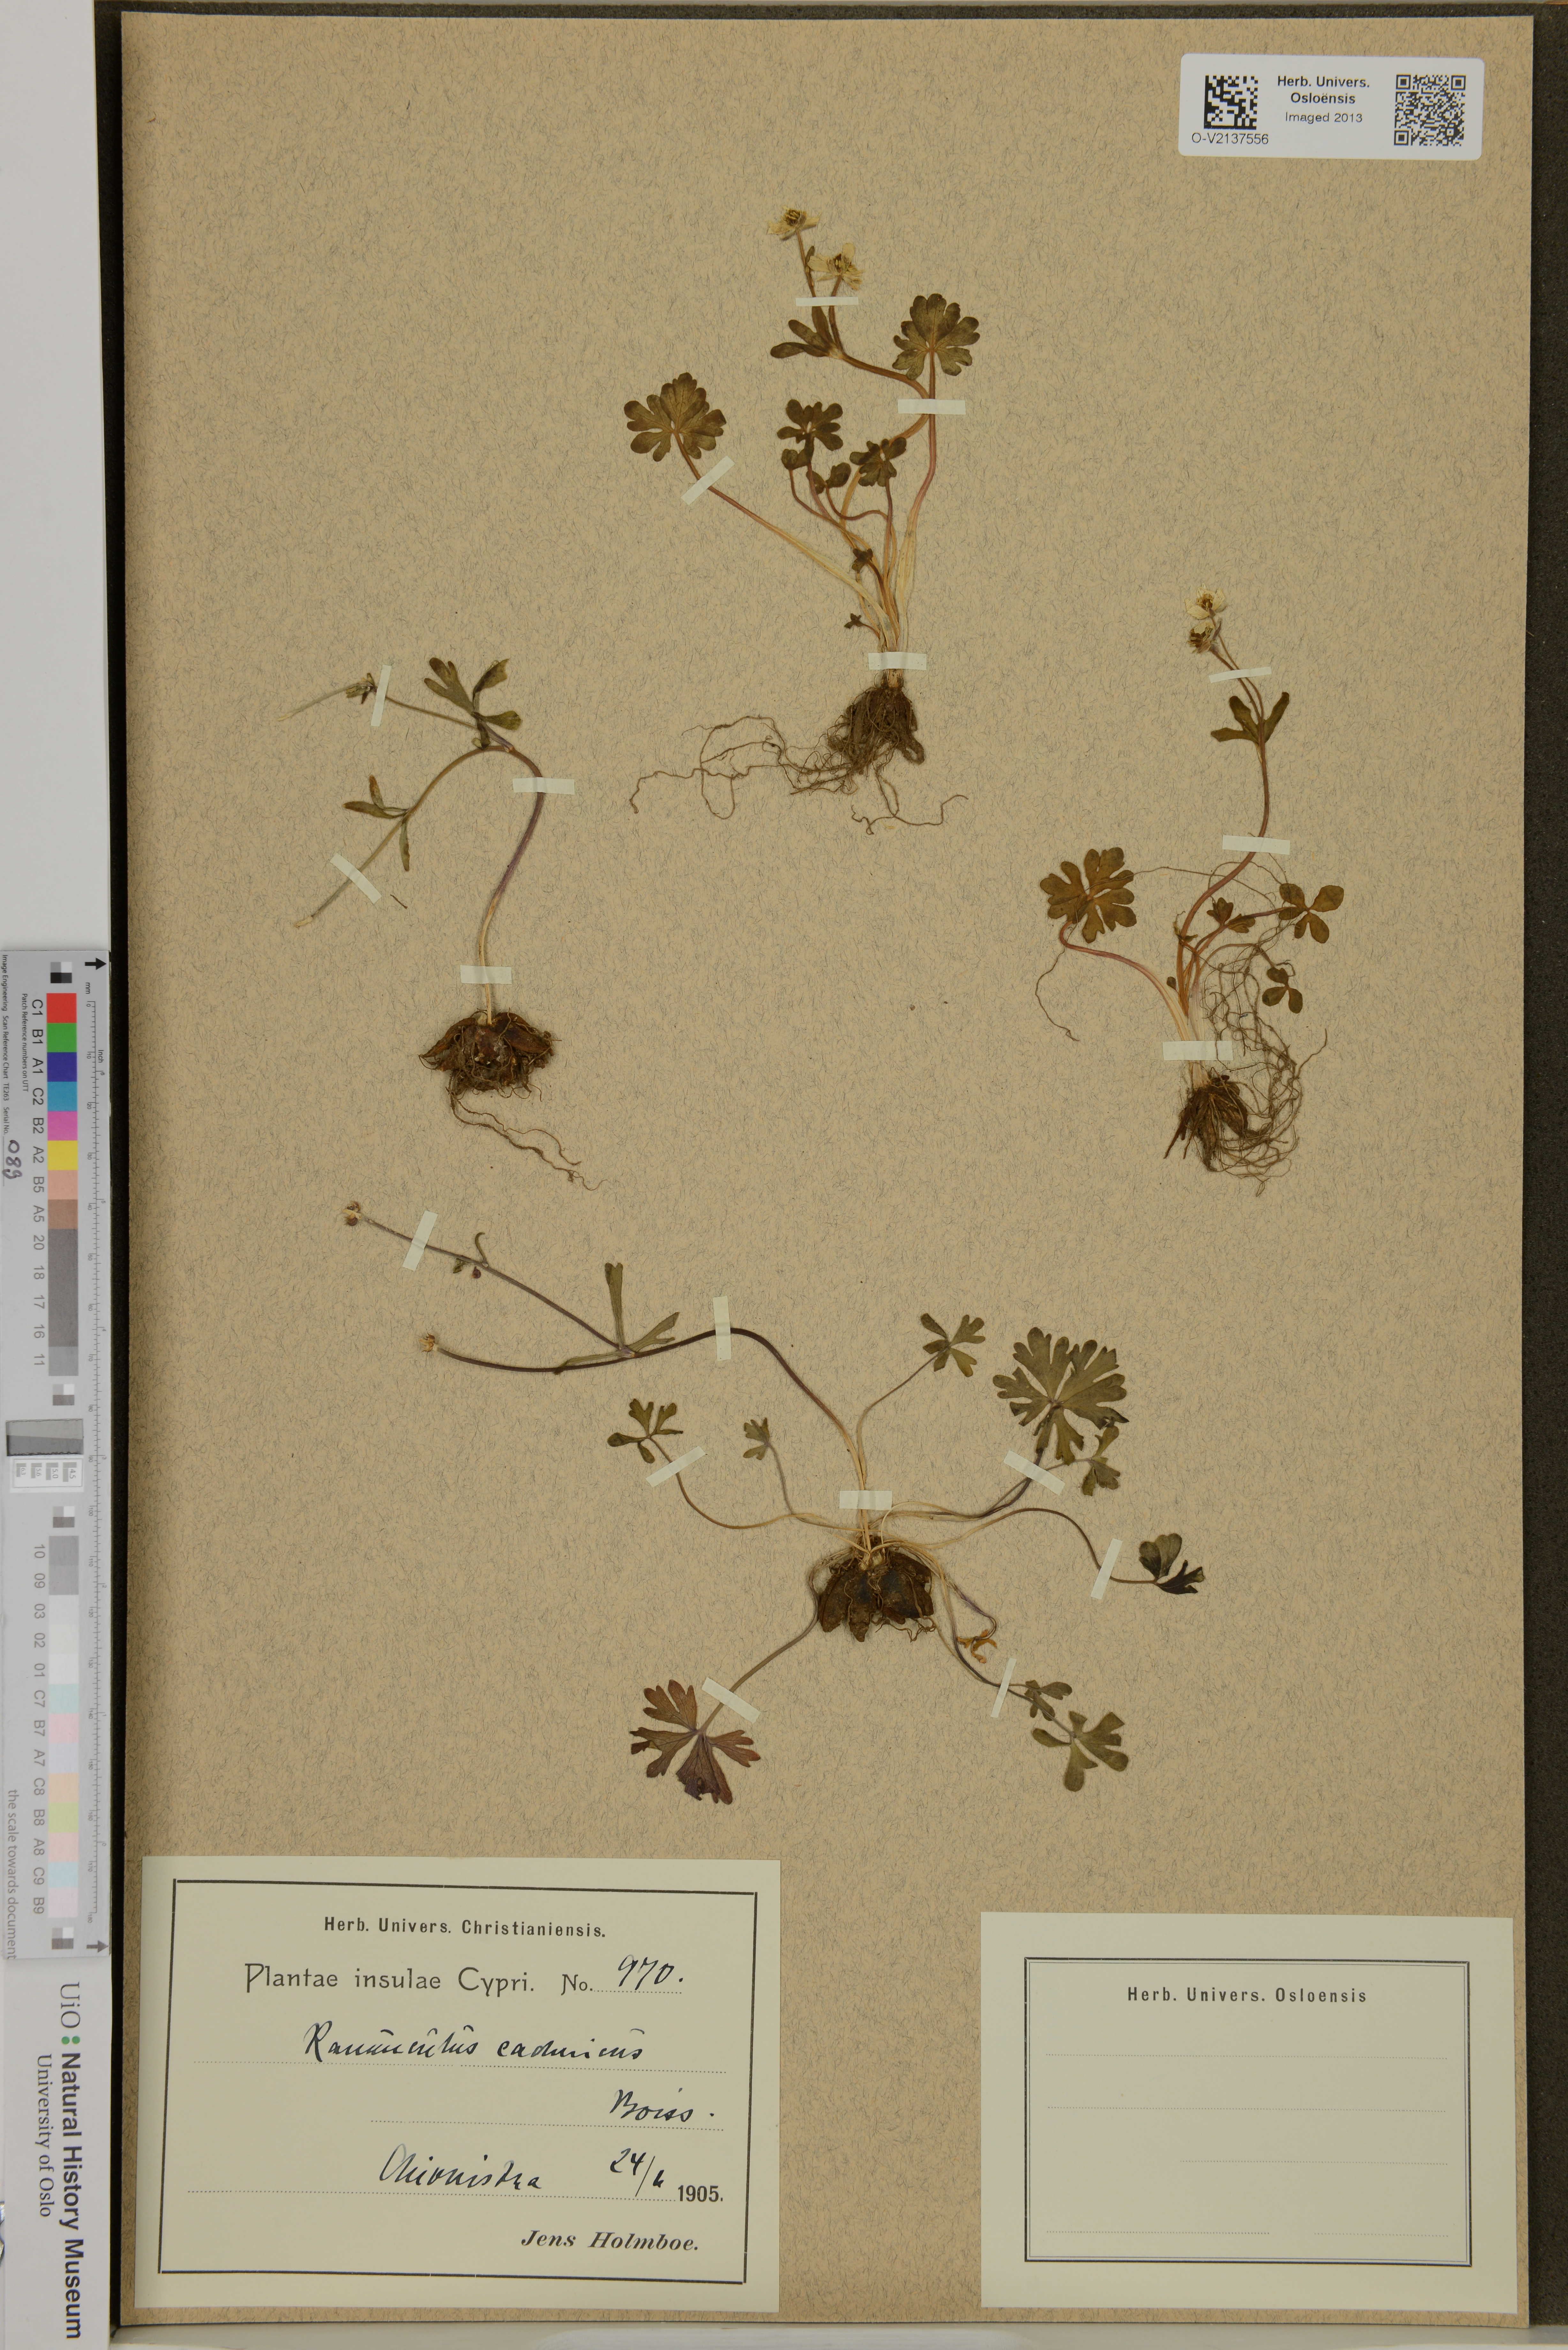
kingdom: Plantae
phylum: Tracheophyta
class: Magnoliopsida
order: Ranunculales
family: Ranunculaceae
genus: Ranunculus
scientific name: Ranunculus cadmicus
